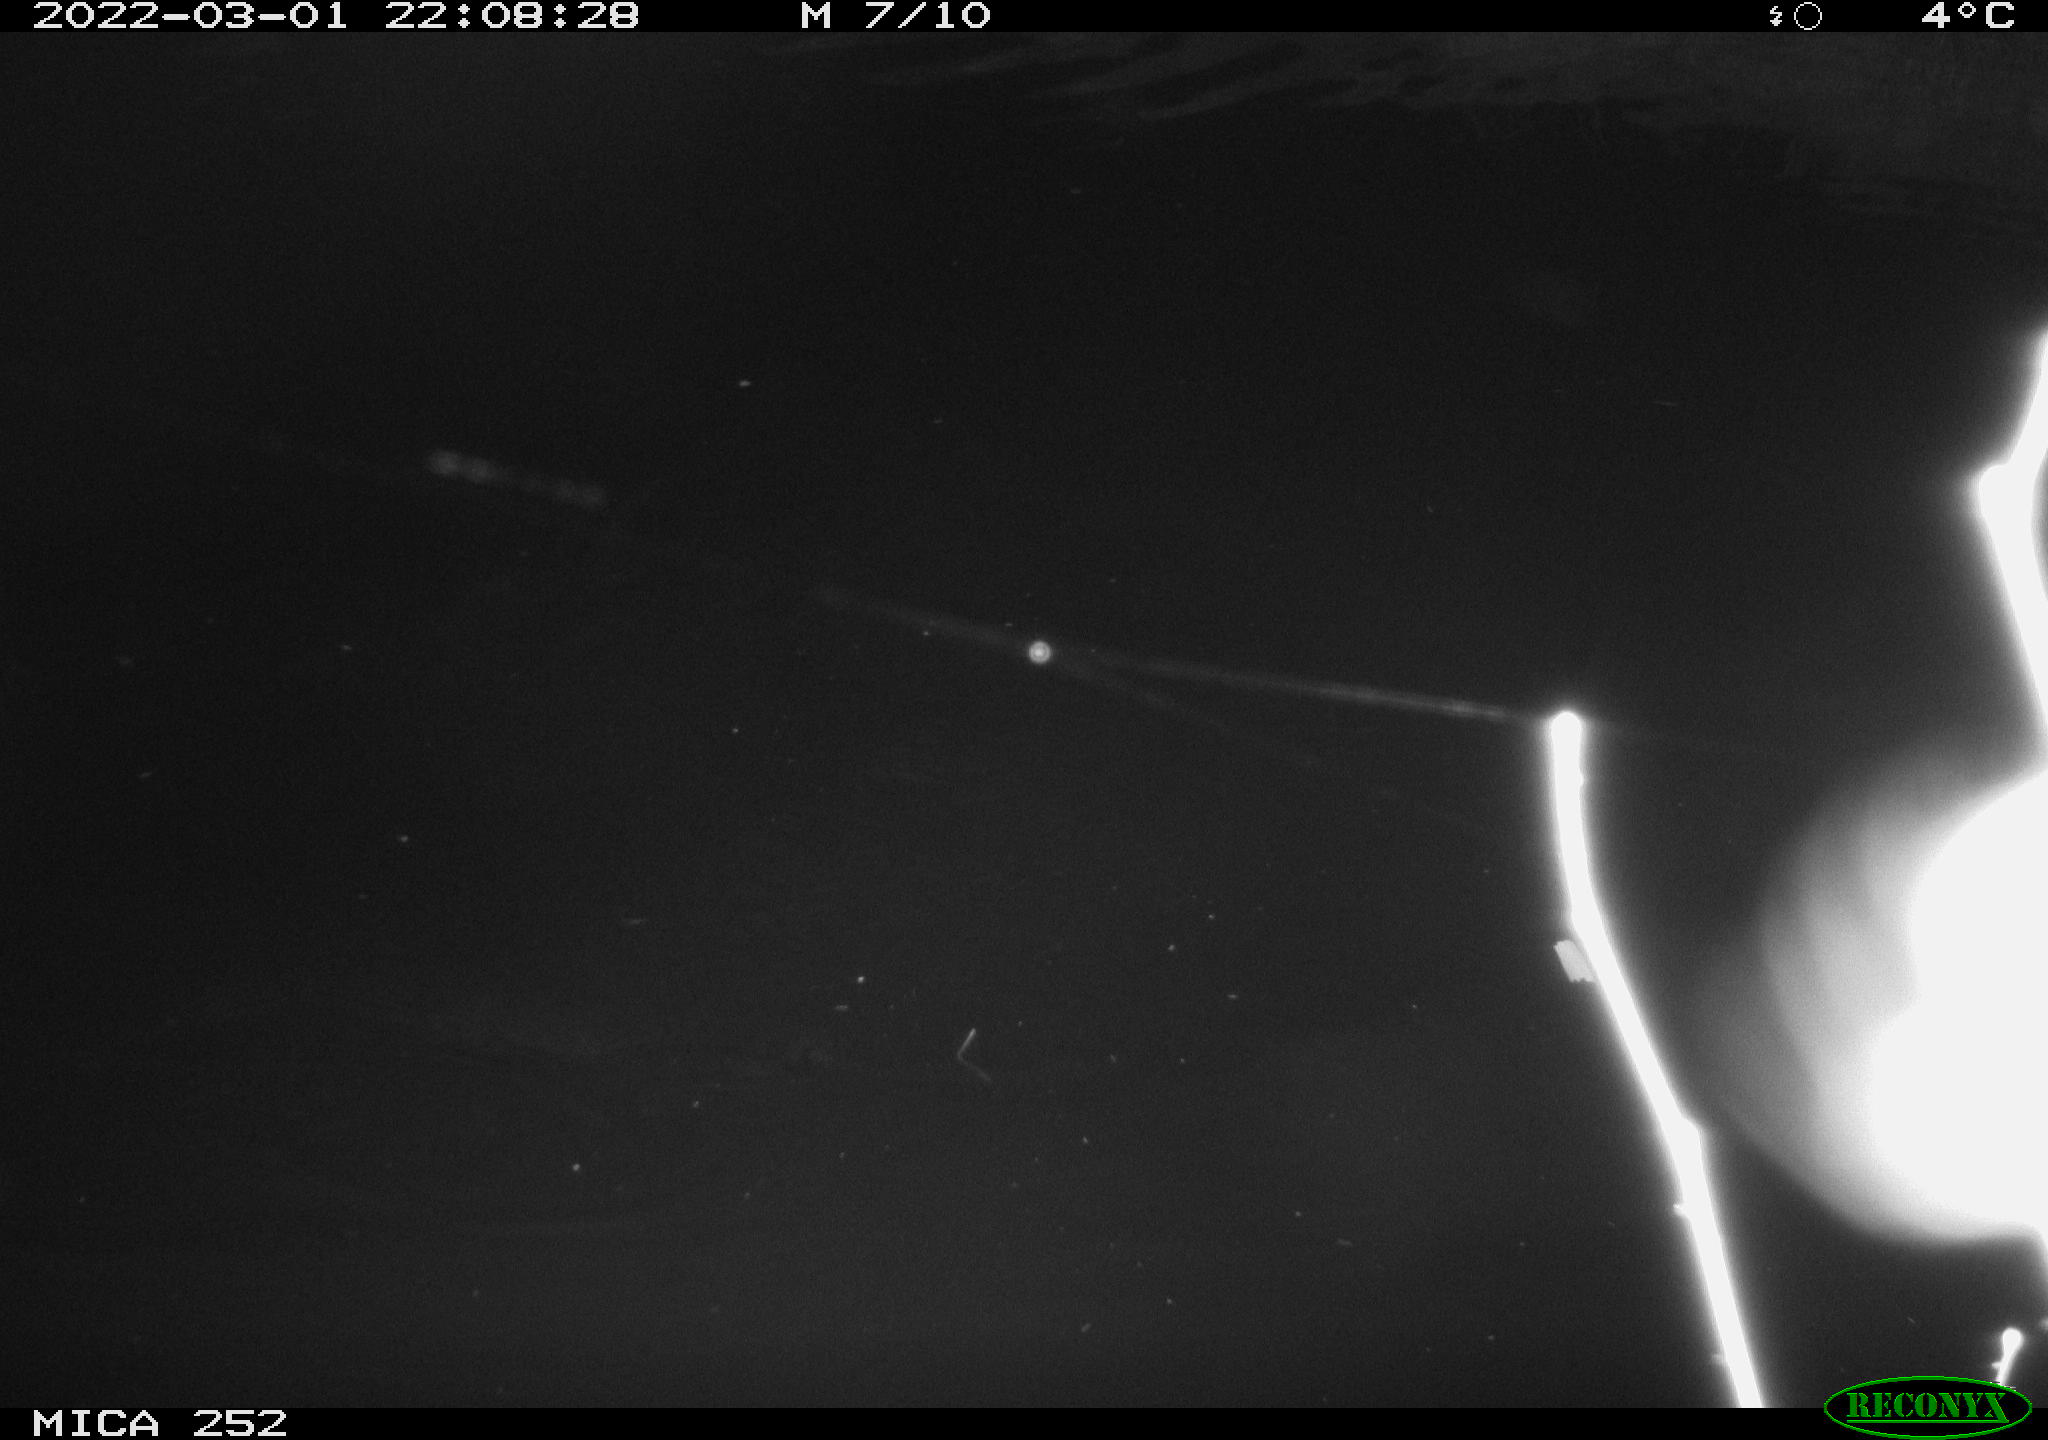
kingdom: Animalia
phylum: Chordata
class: Mammalia
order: Rodentia
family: Castoridae
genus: Castor
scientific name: Castor fiber
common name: Eurasian beaver
